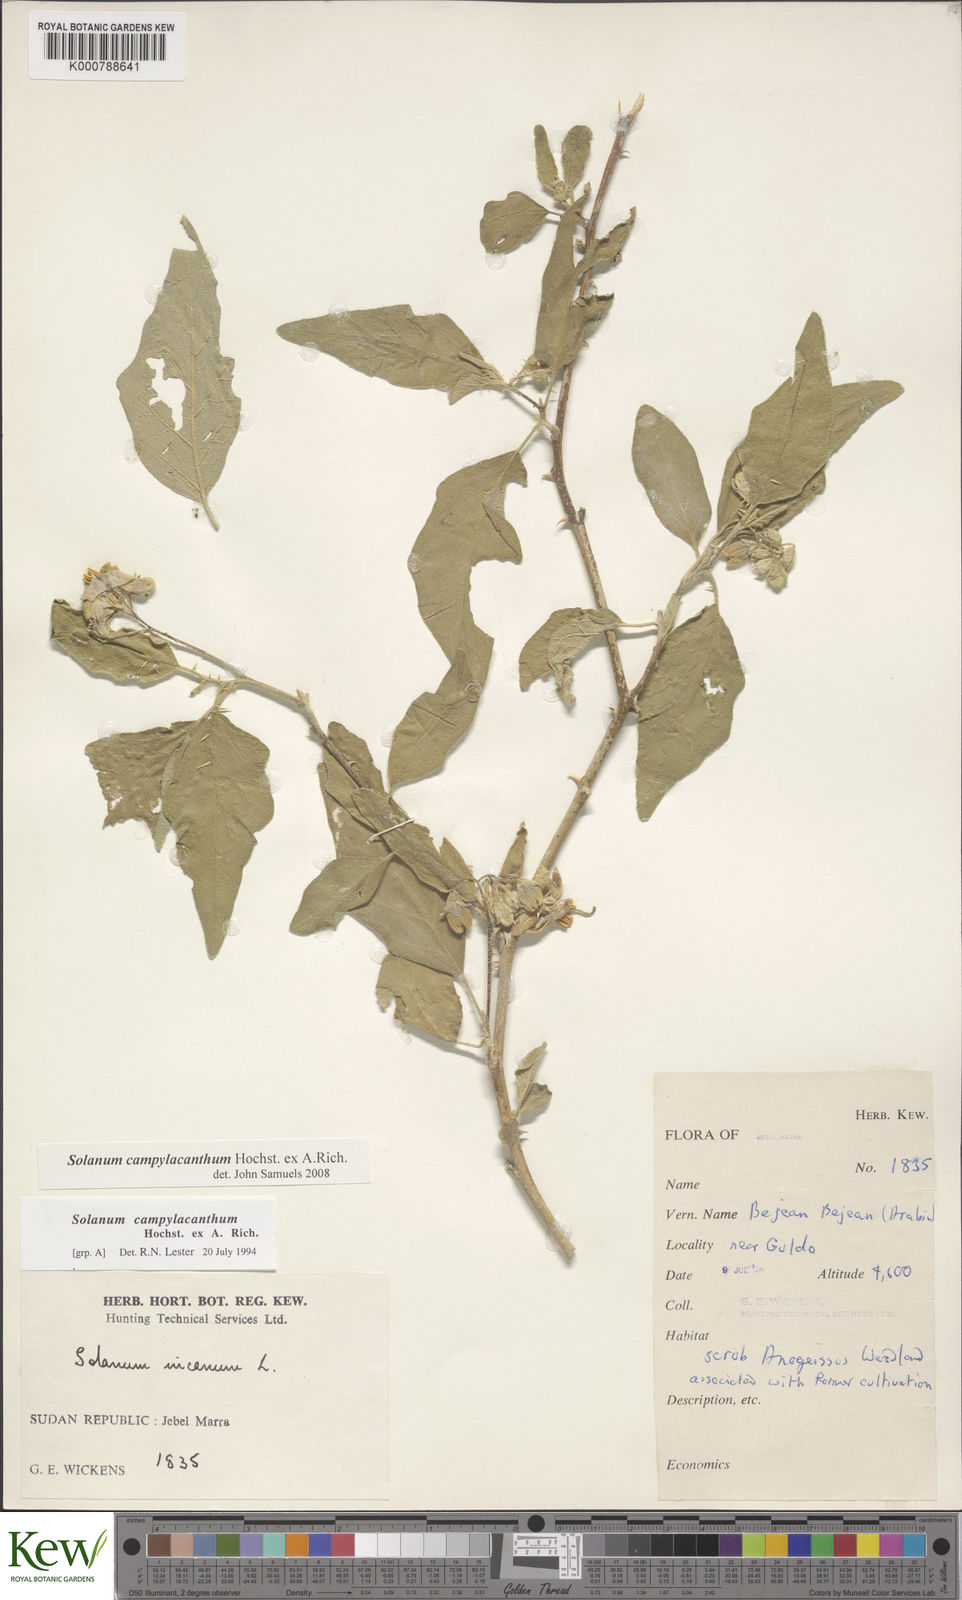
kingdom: Plantae
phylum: Tracheophyta
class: Magnoliopsida
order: Solanales
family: Solanaceae
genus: Solanum
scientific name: Solanum campylacanthum
